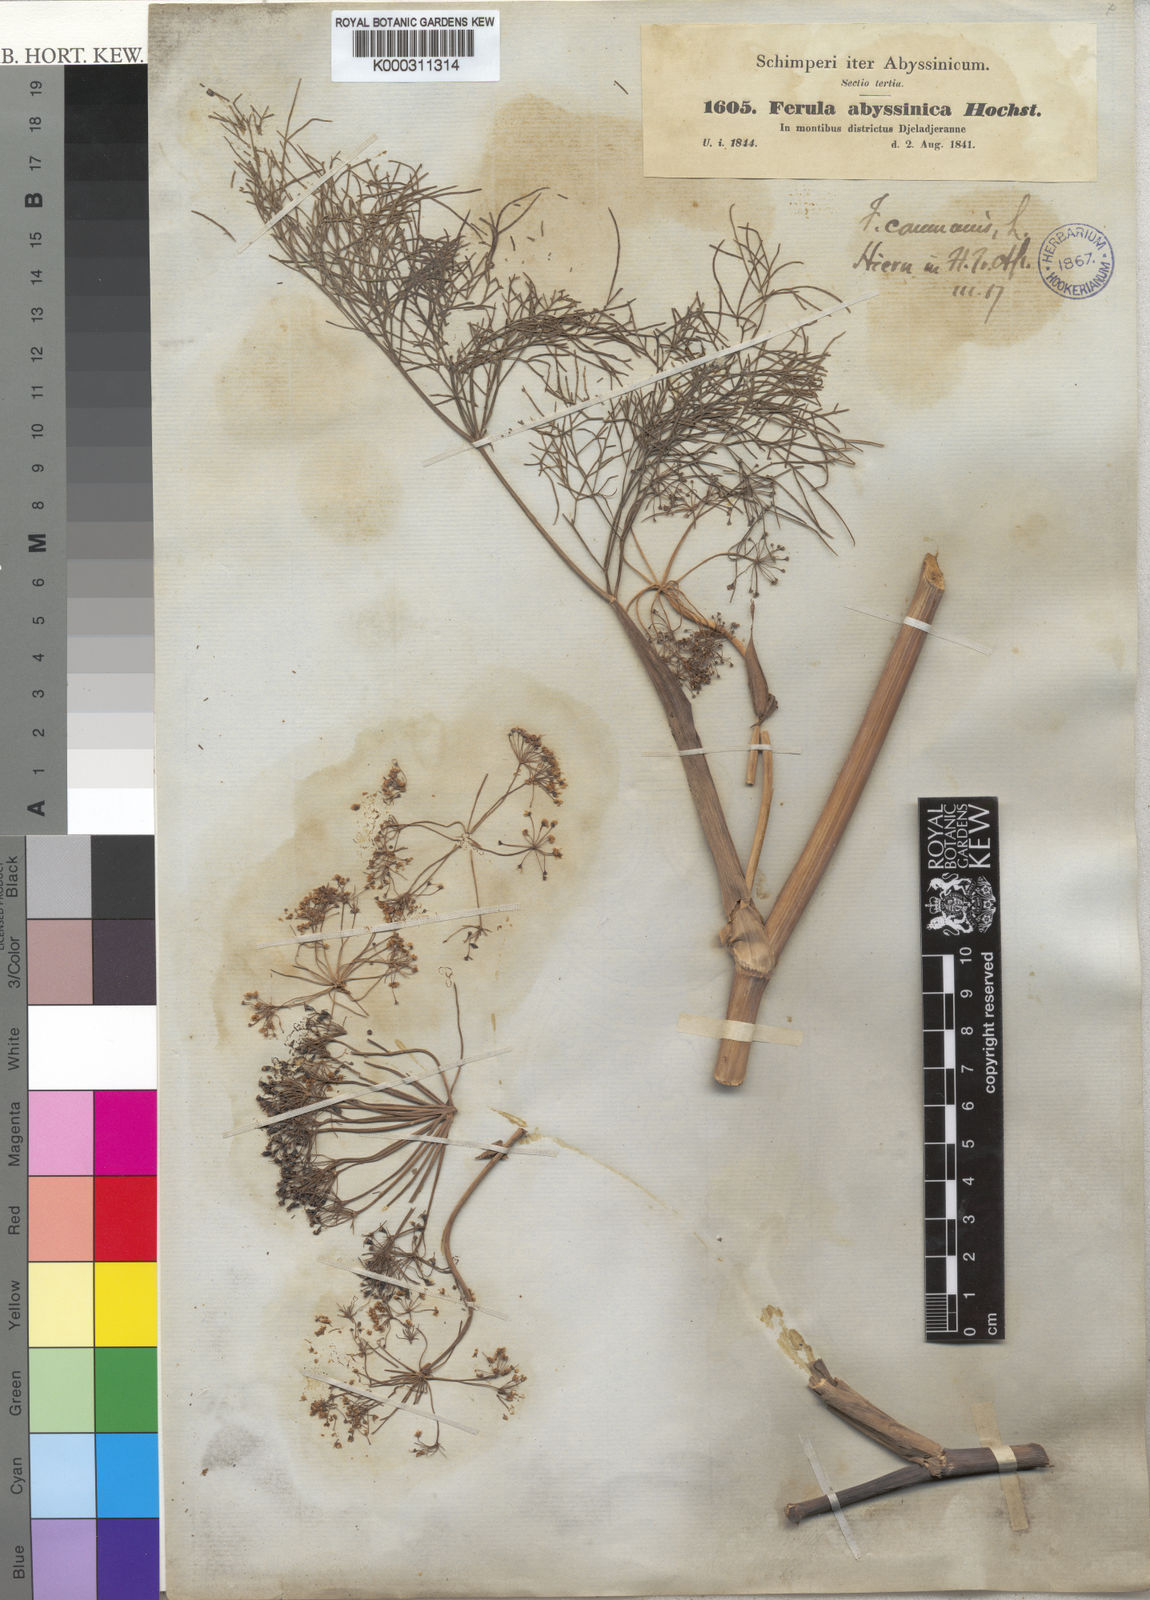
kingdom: Plantae
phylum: Tracheophyta
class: Magnoliopsida
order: Apiales
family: Apiaceae
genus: Ferula
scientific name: Ferula communis
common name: Giant fennel
